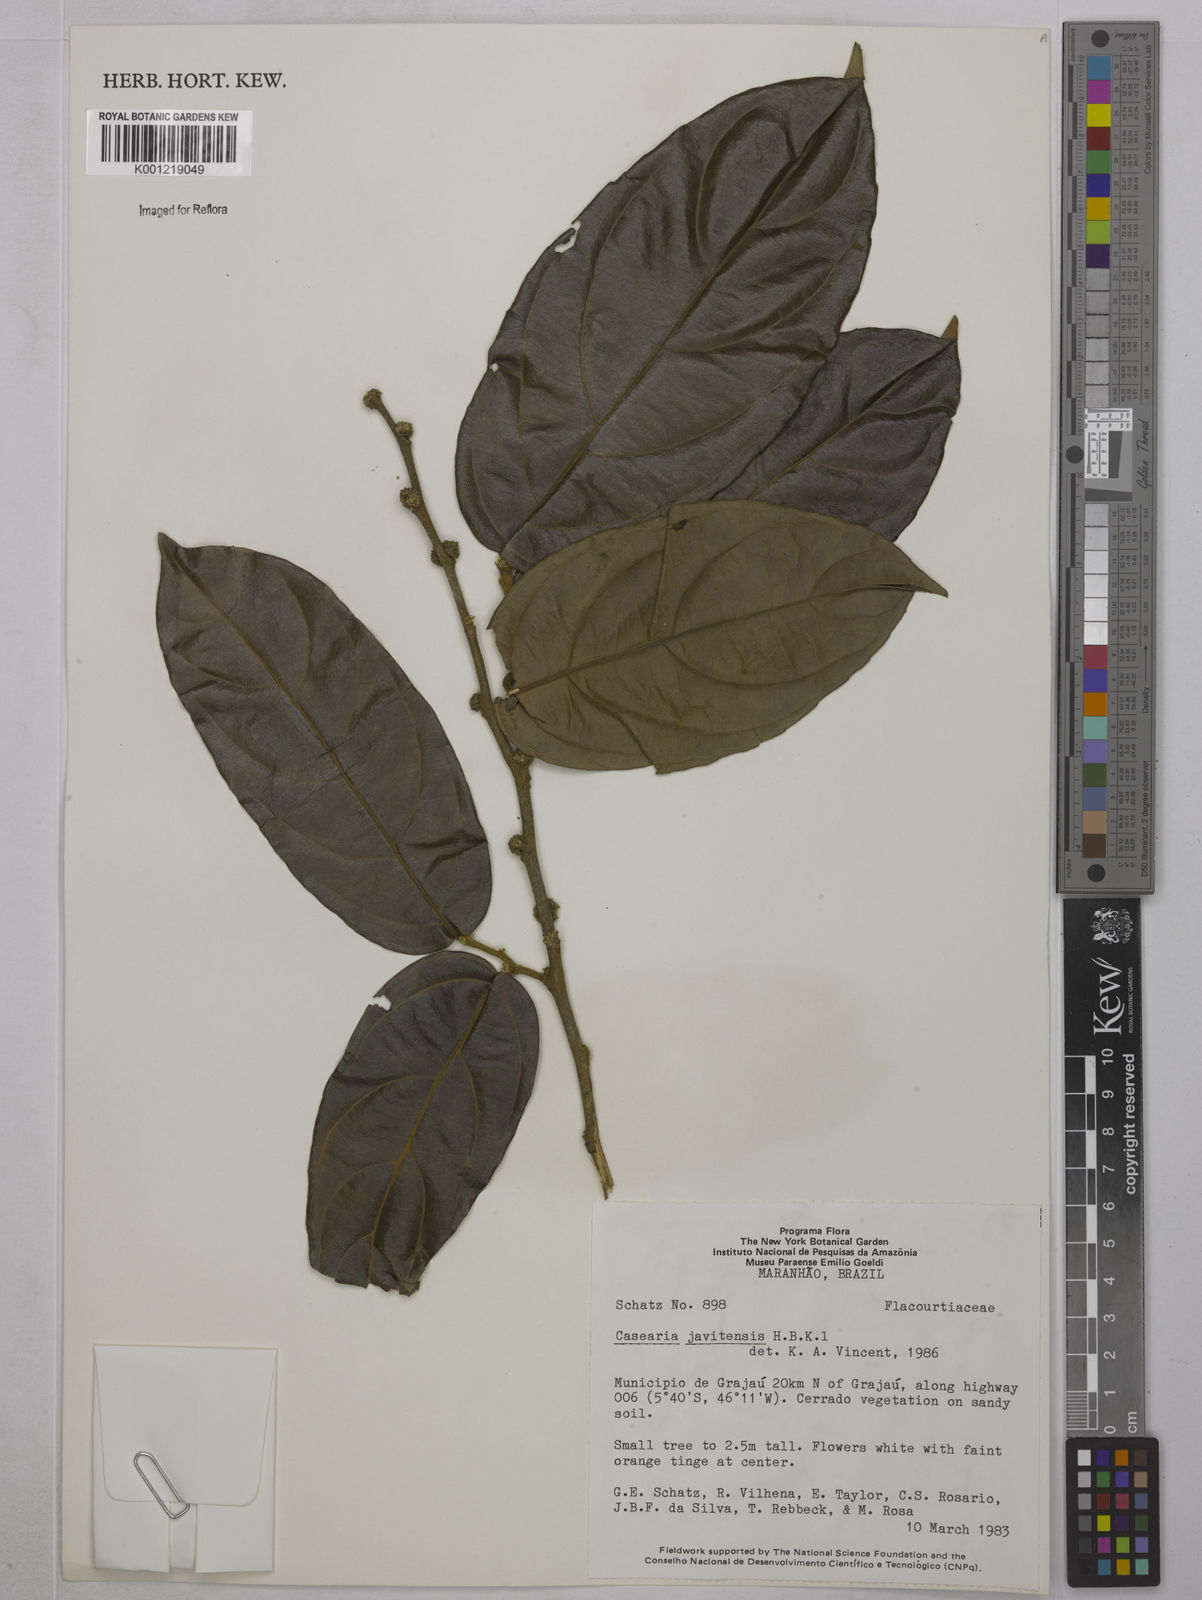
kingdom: Plantae
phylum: Tracheophyta
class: Magnoliopsida
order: Malpighiales
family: Salicaceae
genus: Piparea
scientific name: Piparea multiflora
